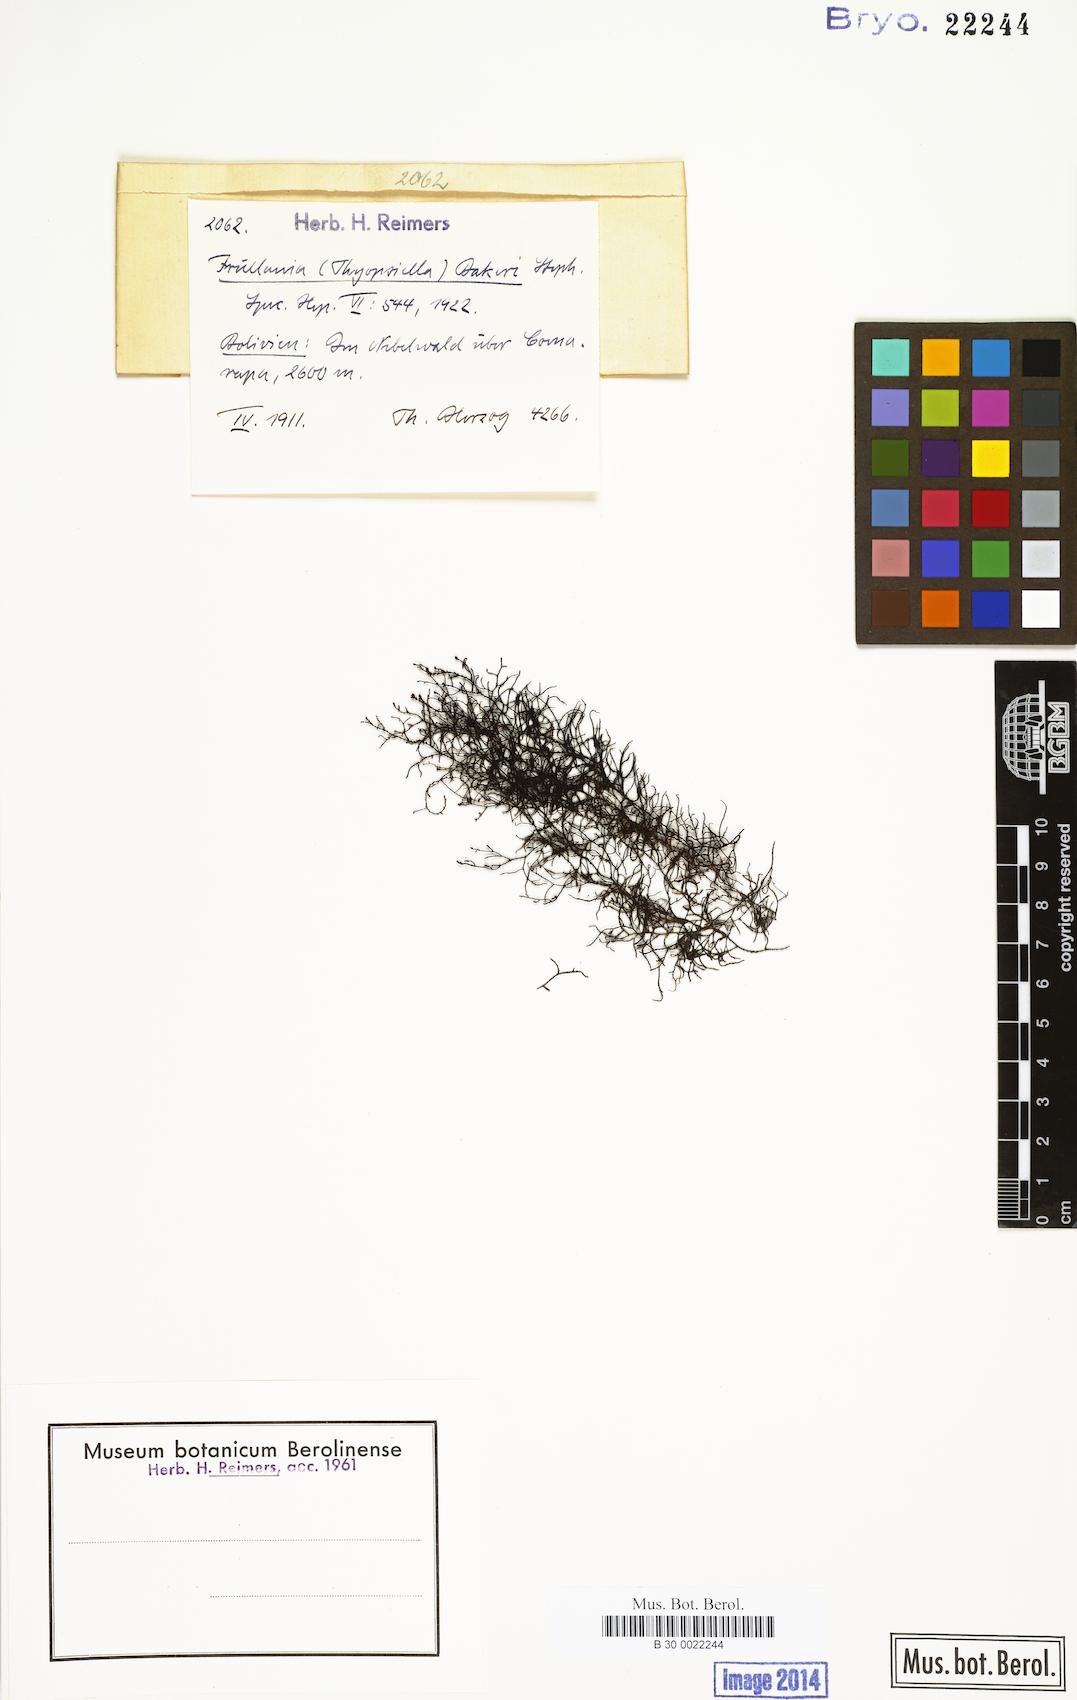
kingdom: Plantae
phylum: Marchantiophyta
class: Jungermanniopsida
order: Porellales
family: Frullaniaceae
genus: Frullania
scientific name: Frullania phalangiflora
